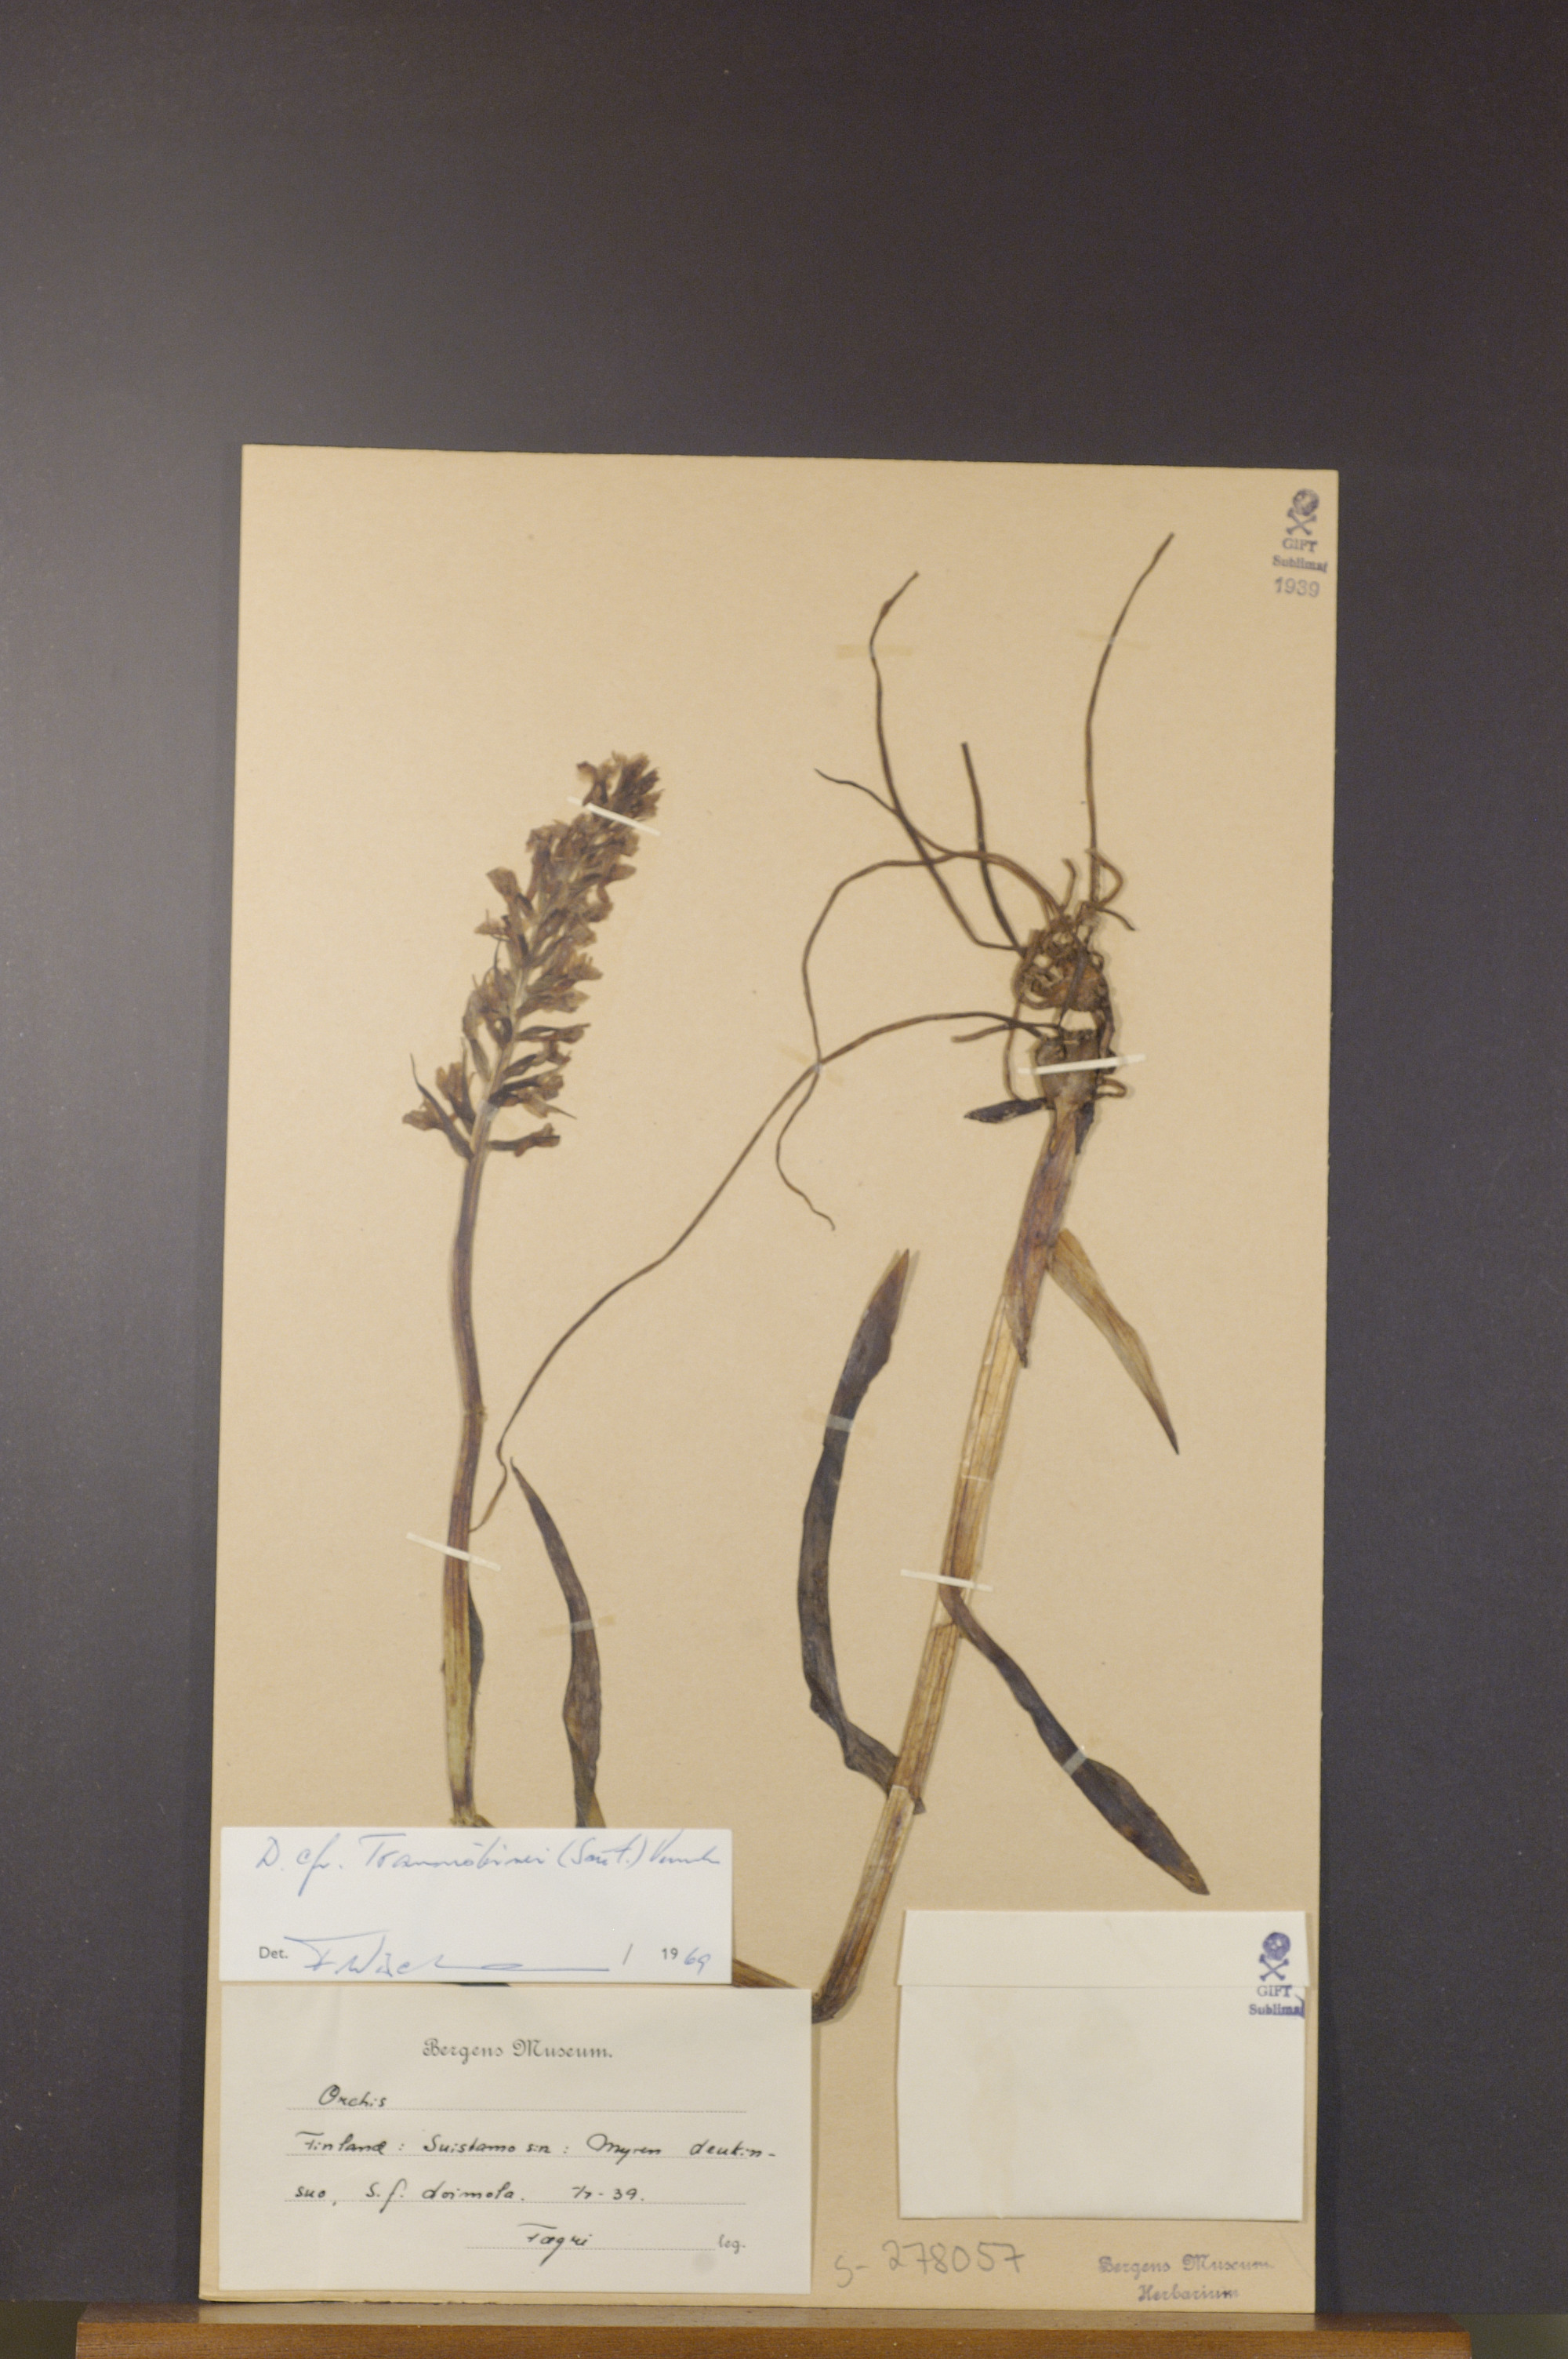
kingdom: Plantae
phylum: Tracheophyta
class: Liliopsida
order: Asparagales
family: Orchidaceae
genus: Dactylorhiza
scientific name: Dactylorhiza majalis
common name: Marsh orchid
